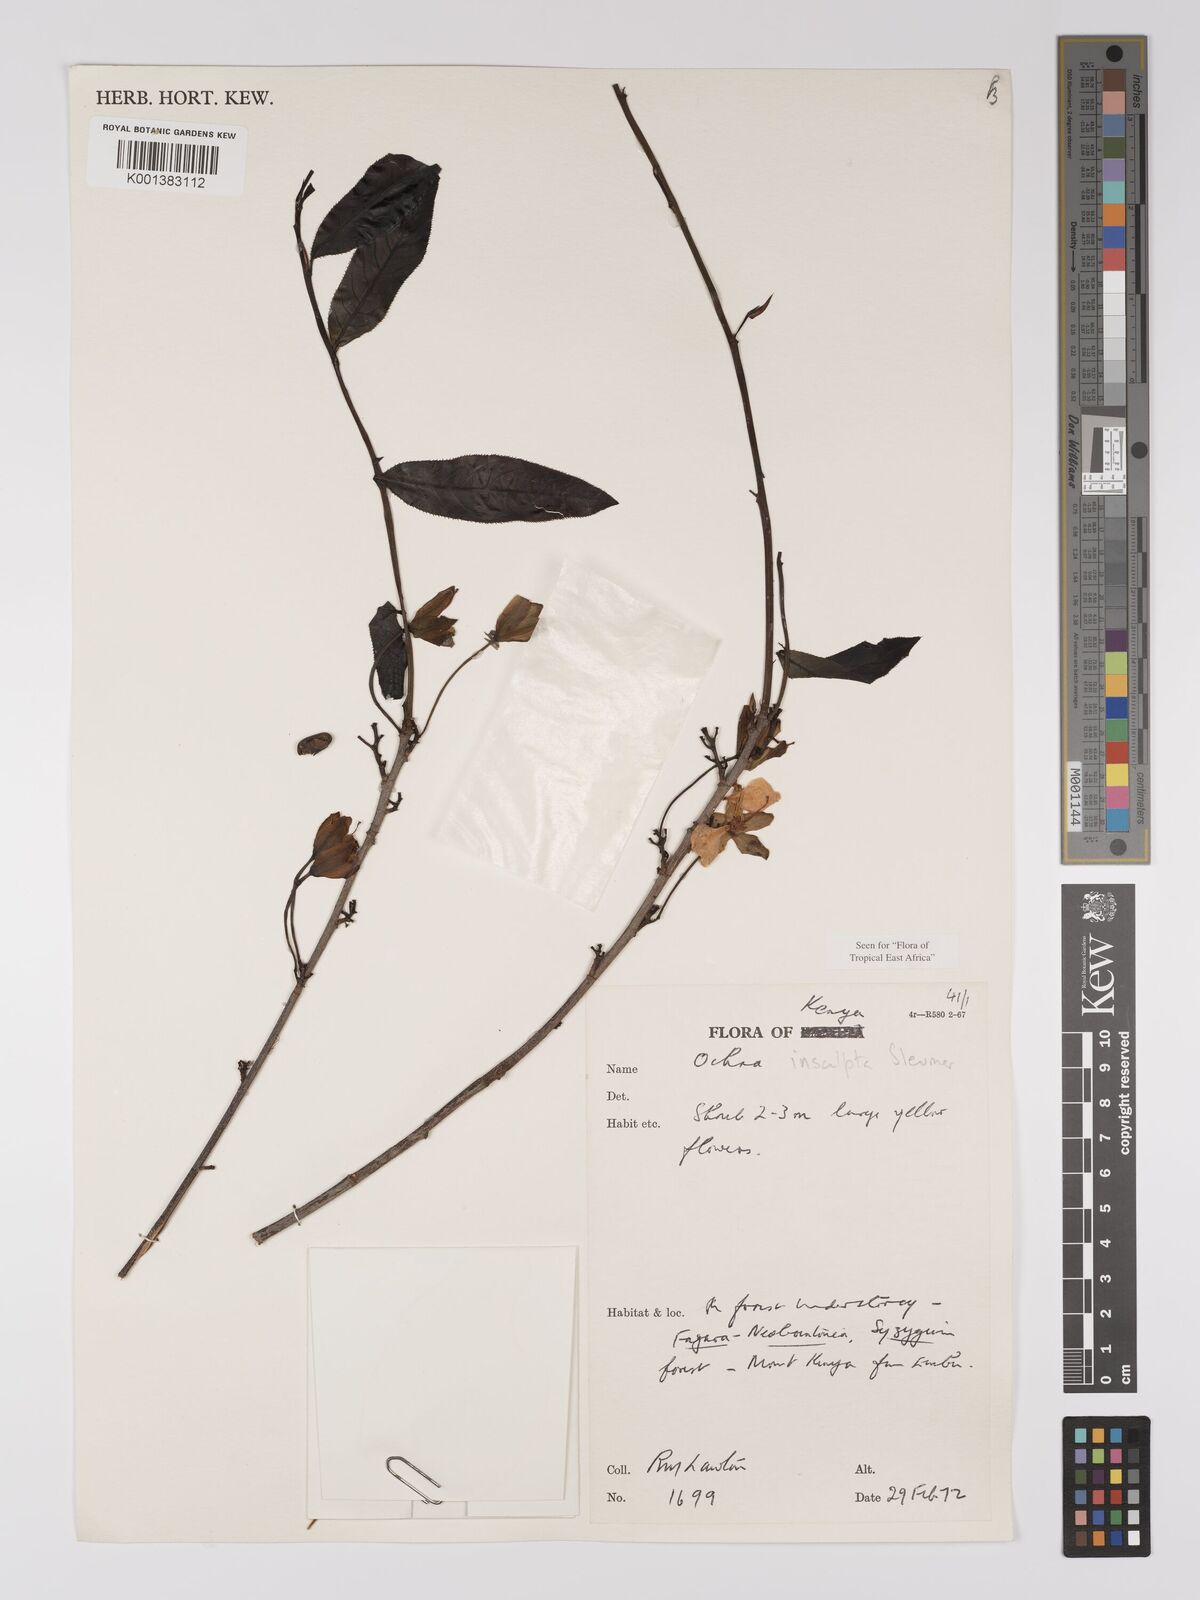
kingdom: Plantae
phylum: Tracheophyta
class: Magnoliopsida
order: Malpighiales
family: Ochnaceae
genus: Ochna
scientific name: Ochna insculpta
